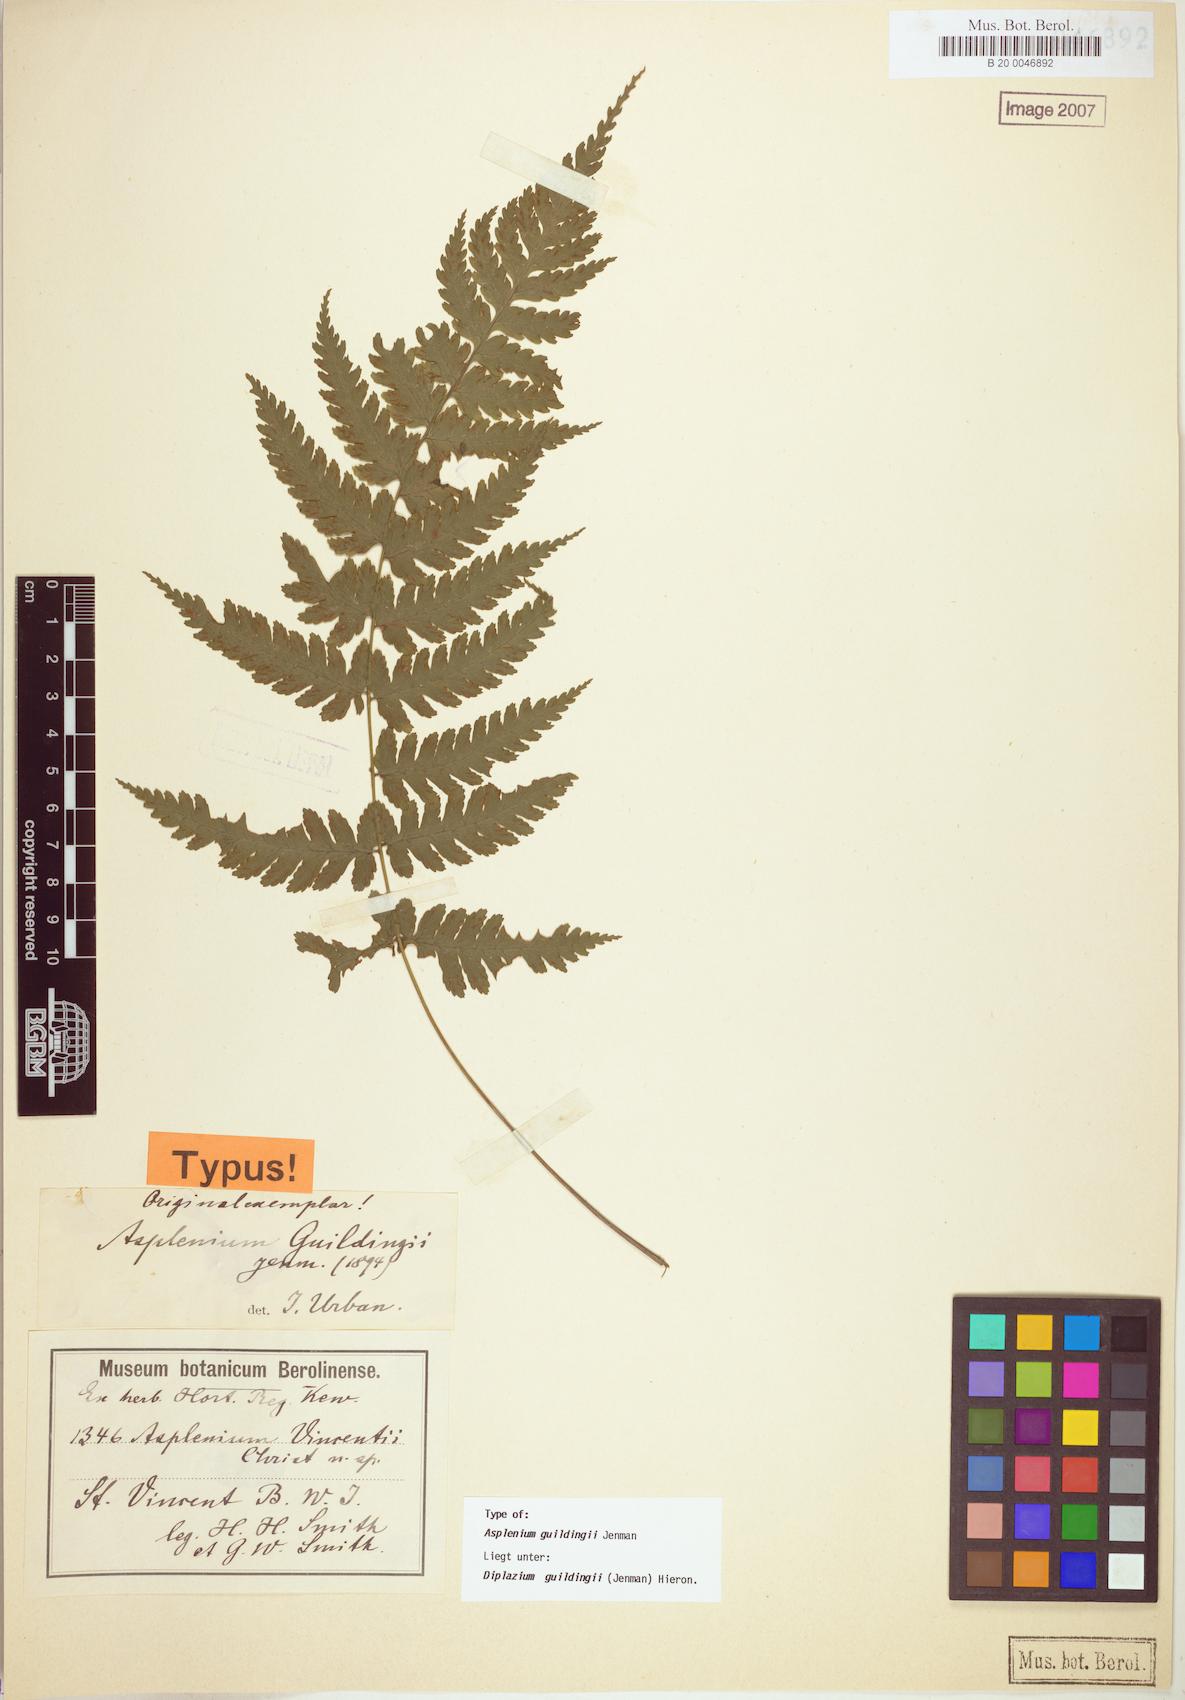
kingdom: Plantae
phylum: Tracheophyta
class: Polypodiopsida
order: Polypodiales
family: Athyriaceae
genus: Diplazium
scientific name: Diplazium caracasanum
